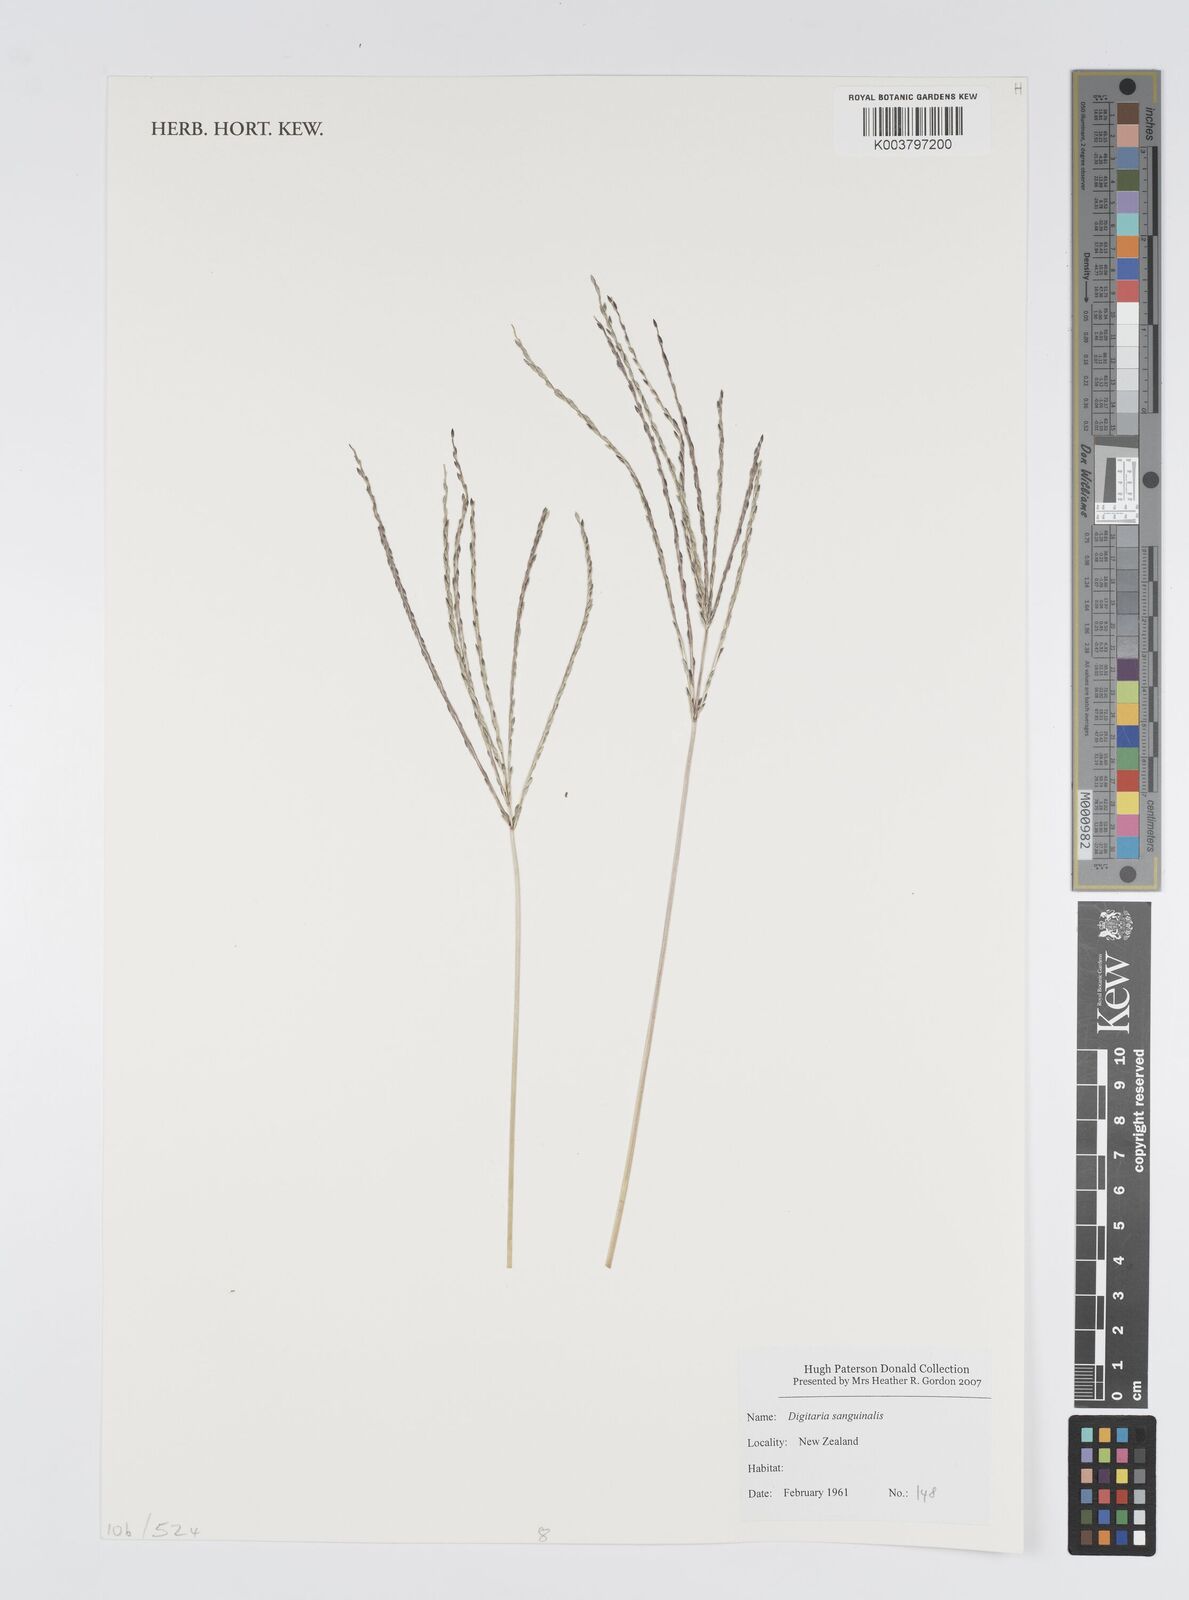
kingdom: Plantae
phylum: Tracheophyta
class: Liliopsida
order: Poales
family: Poaceae
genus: Digitaria
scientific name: Digitaria sanguinalis
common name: Hairy crabgrass
